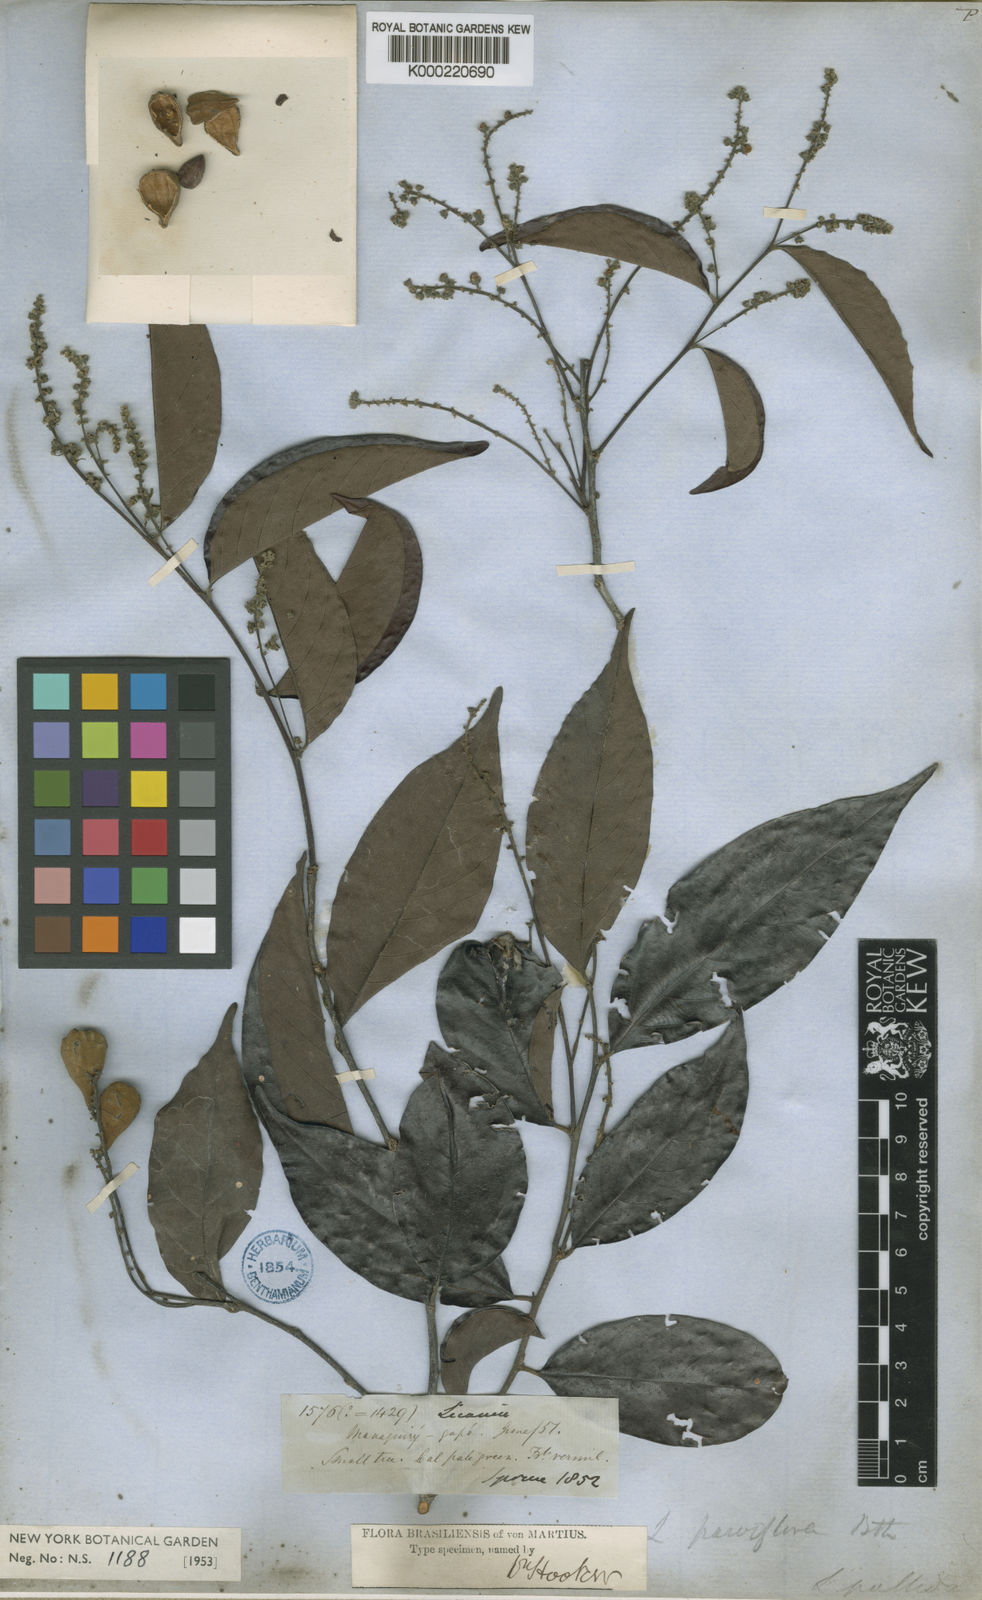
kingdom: Plantae
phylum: Tracheophyta
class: Magnoliopsida
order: Malpighiales
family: Chrysobalanaceae
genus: Licania
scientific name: Licania pallida
